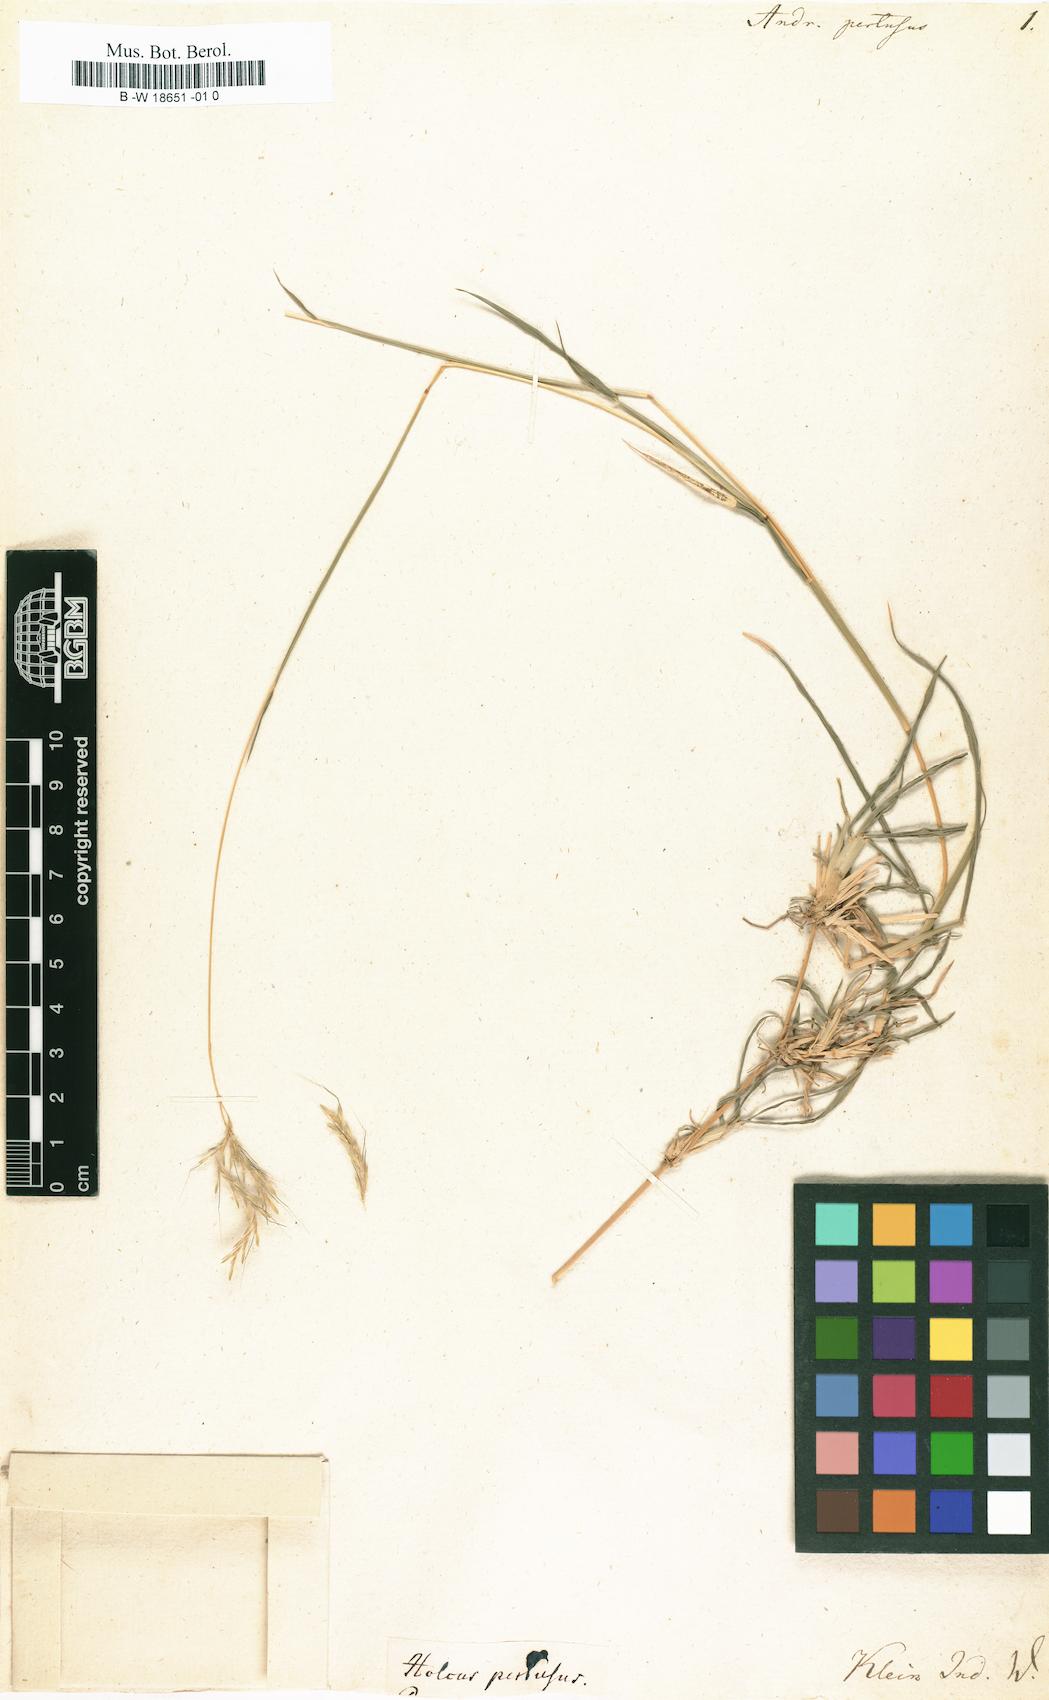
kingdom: Plantae
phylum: Tracheophyta
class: Liliopsida
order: Poales
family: Poaceae
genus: Bothriochloa
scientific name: Bothriochloa pertusa
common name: Pitted beardgrass
